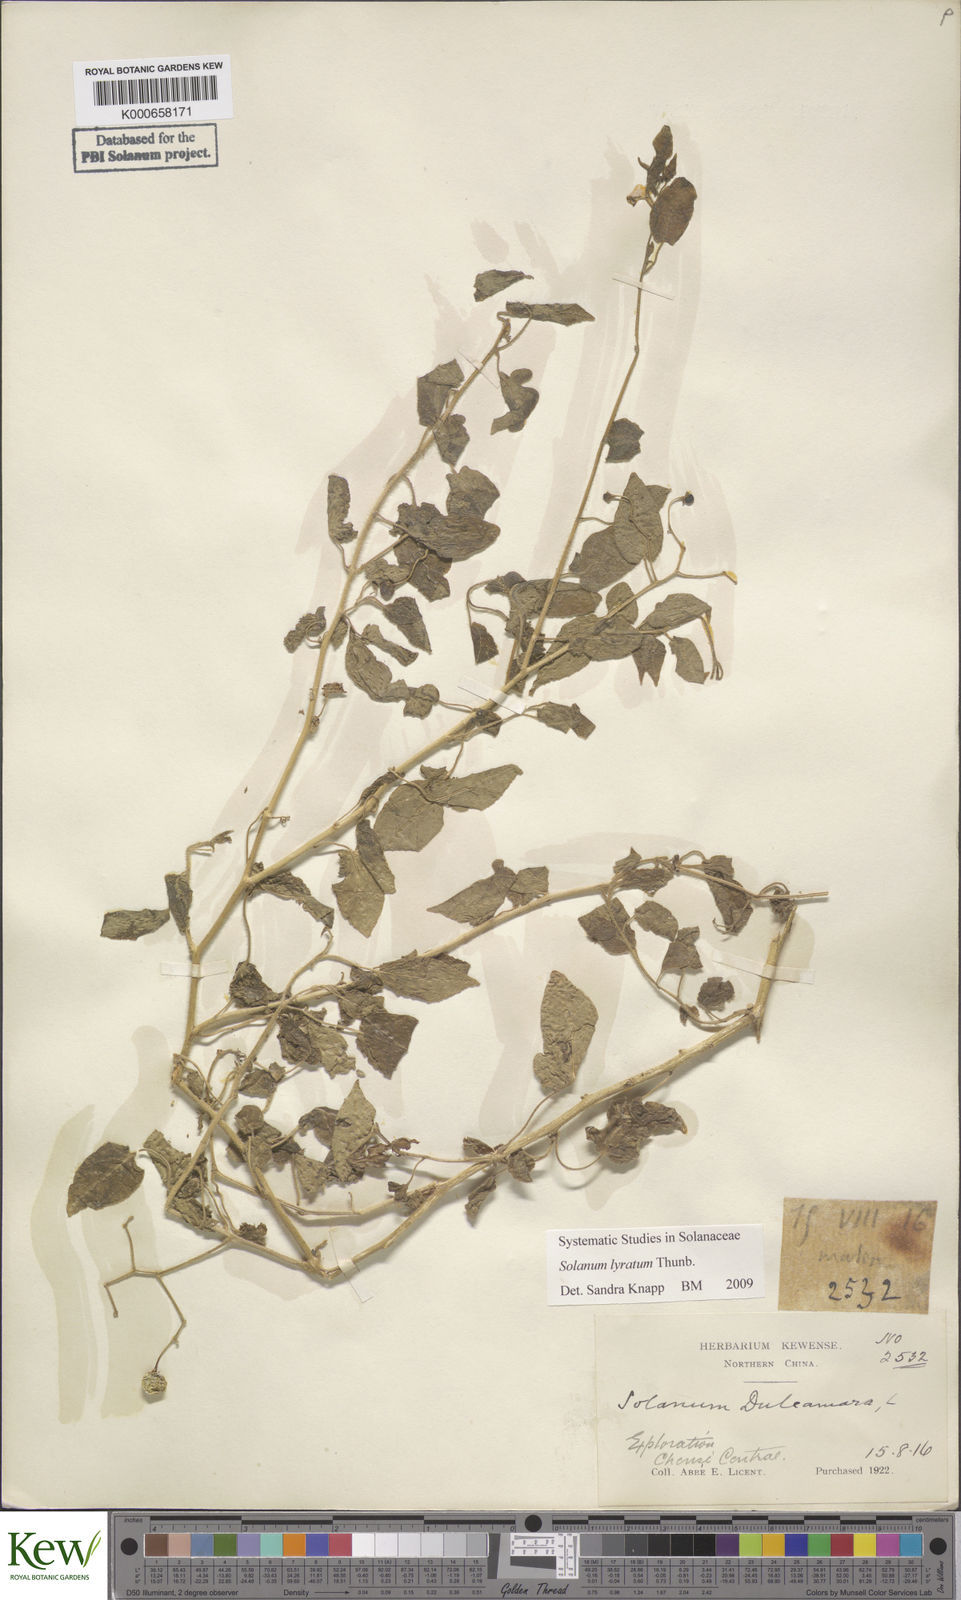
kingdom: Plantae
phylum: Tracheophyta
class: Magnoliopsida
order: Solanales
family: Solanaceae
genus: Solanum
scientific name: Solanum lyratum
